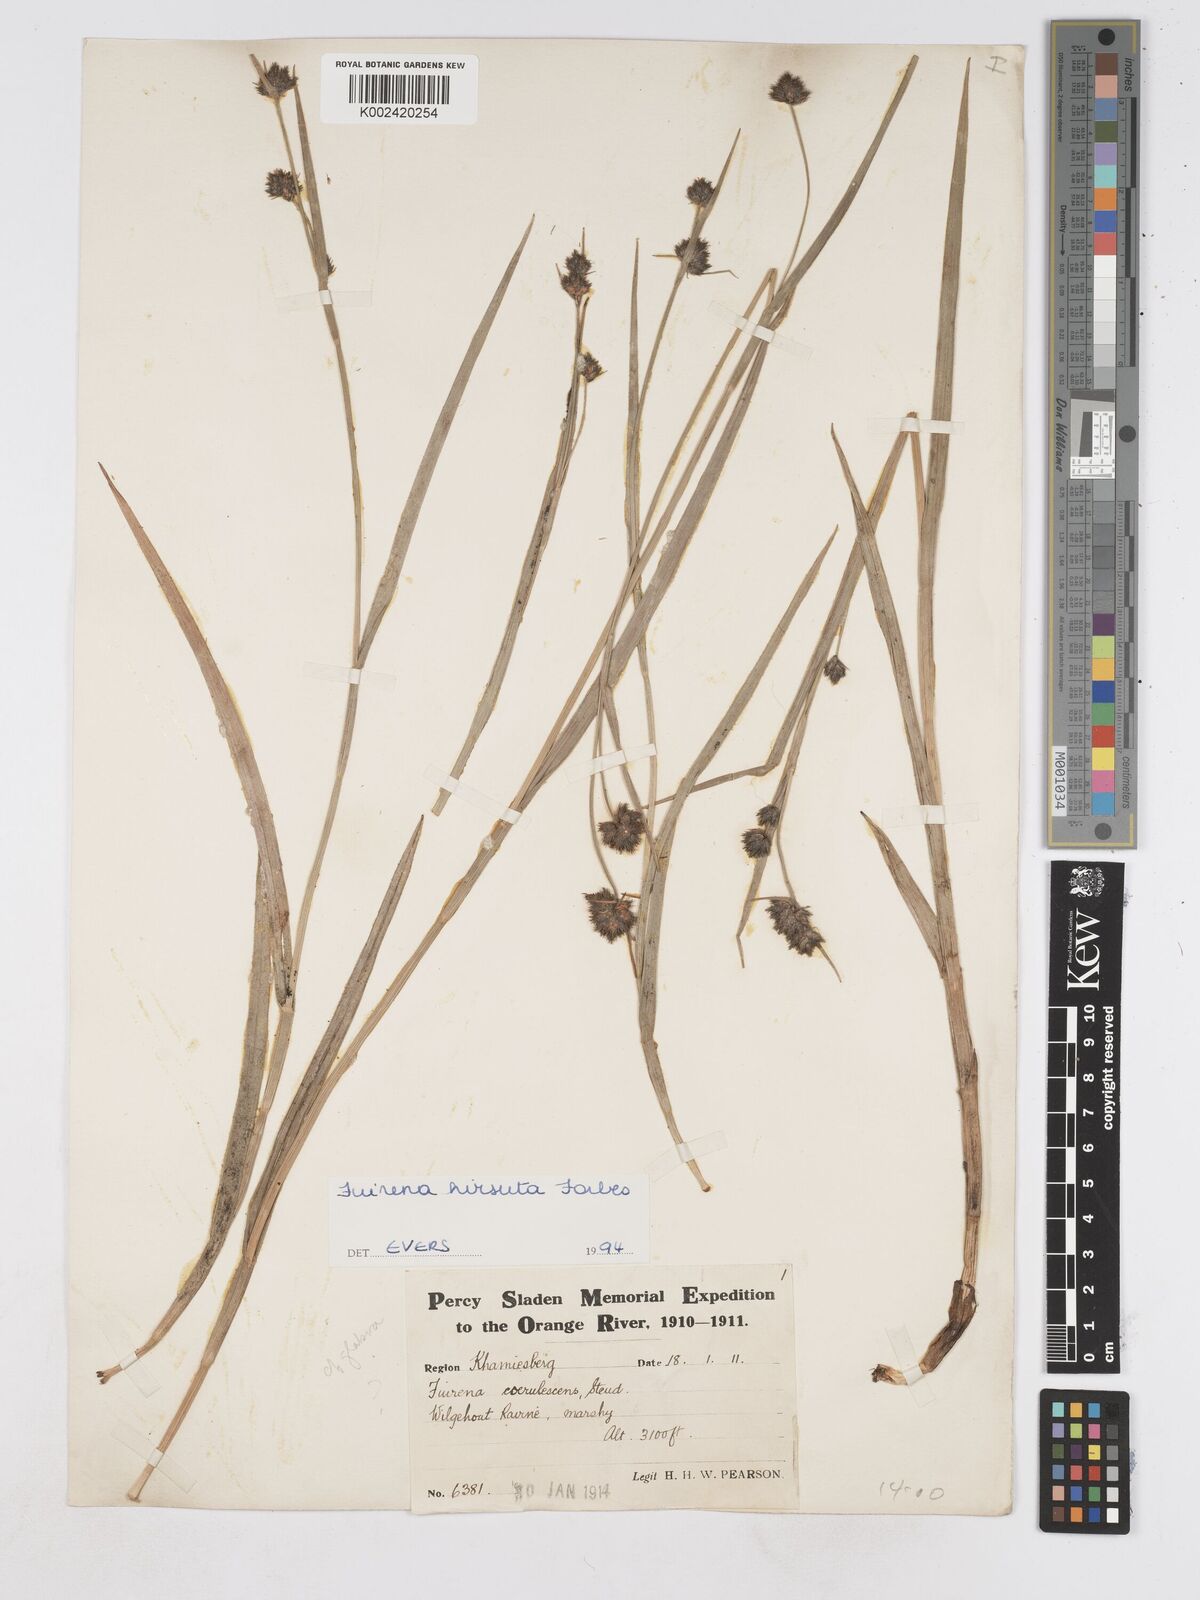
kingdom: Plantae
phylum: Tracheophyta
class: Liliopsida
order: Poales
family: Cyperaceae
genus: Fuirena
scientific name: Fuirena hirsuta
